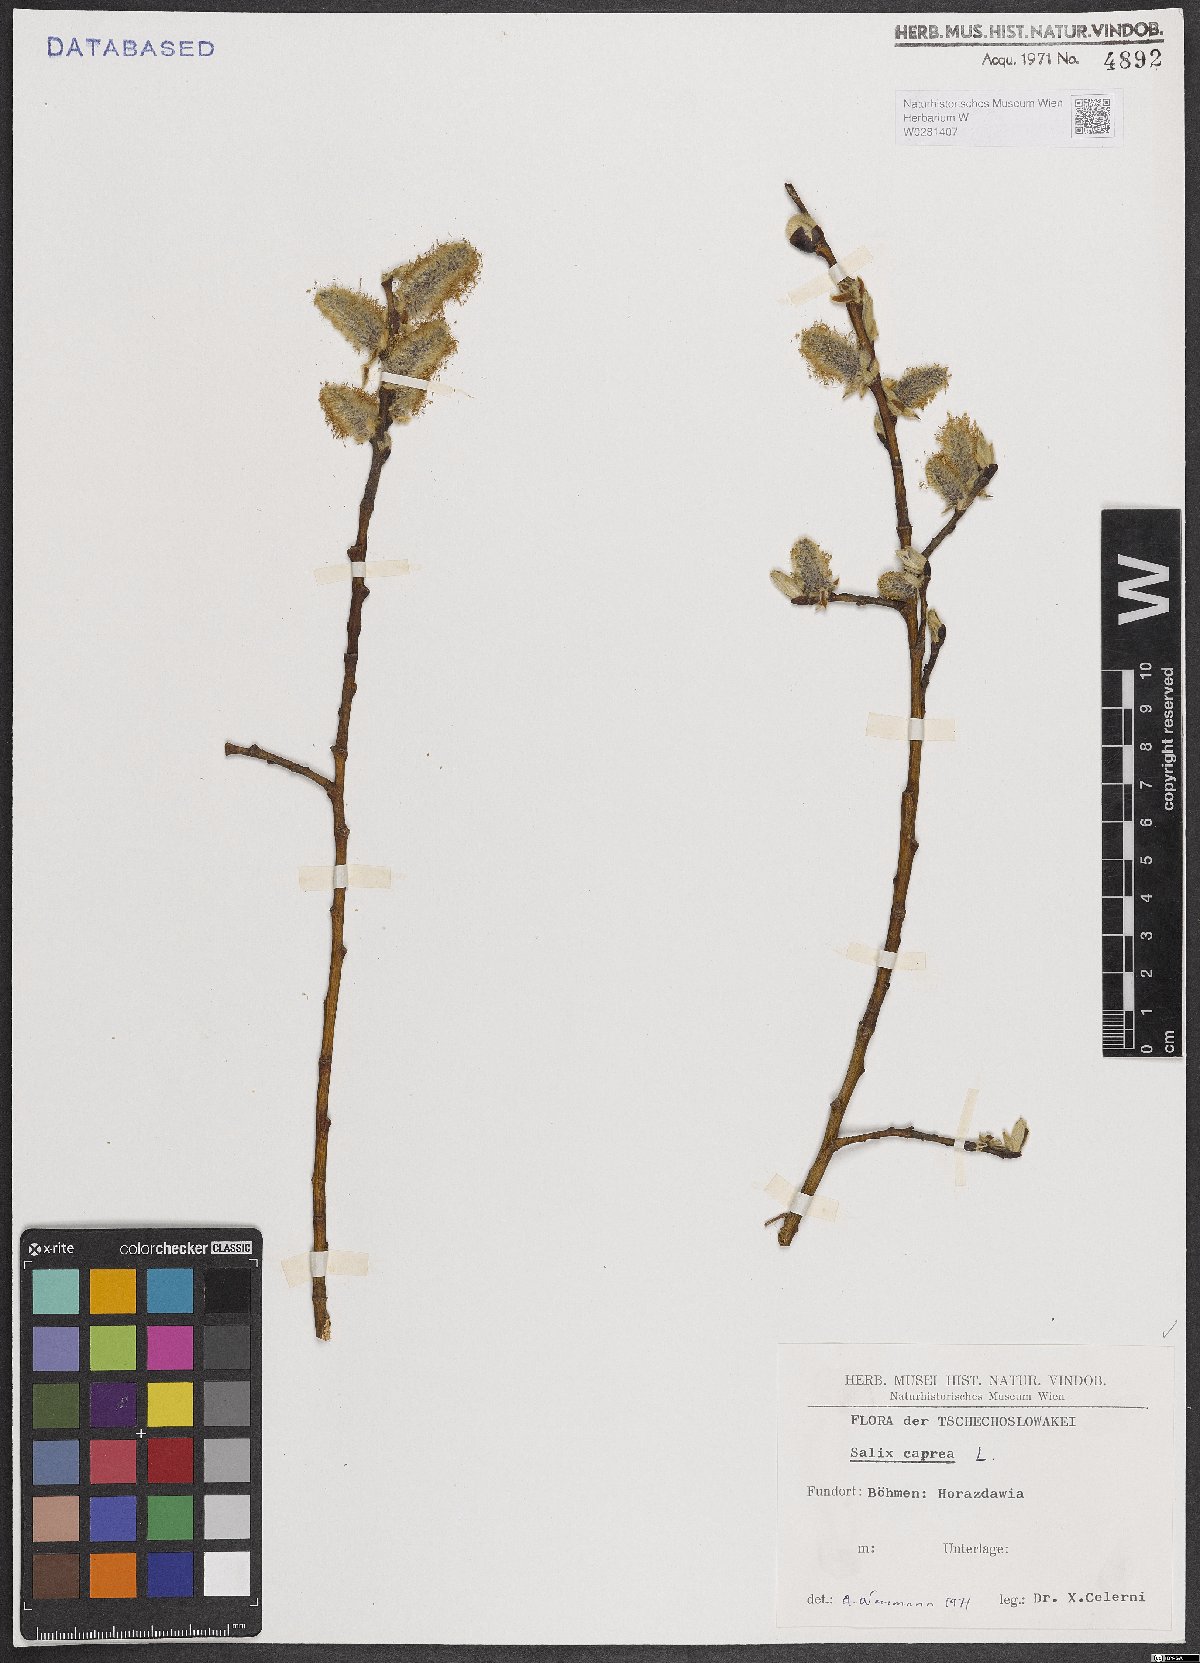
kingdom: Plantae
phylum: Tracheophyta
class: Magnoliopsida
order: Malpighiales
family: Salicaceae
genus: Salix
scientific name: Salix caprea
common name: Goat willow
